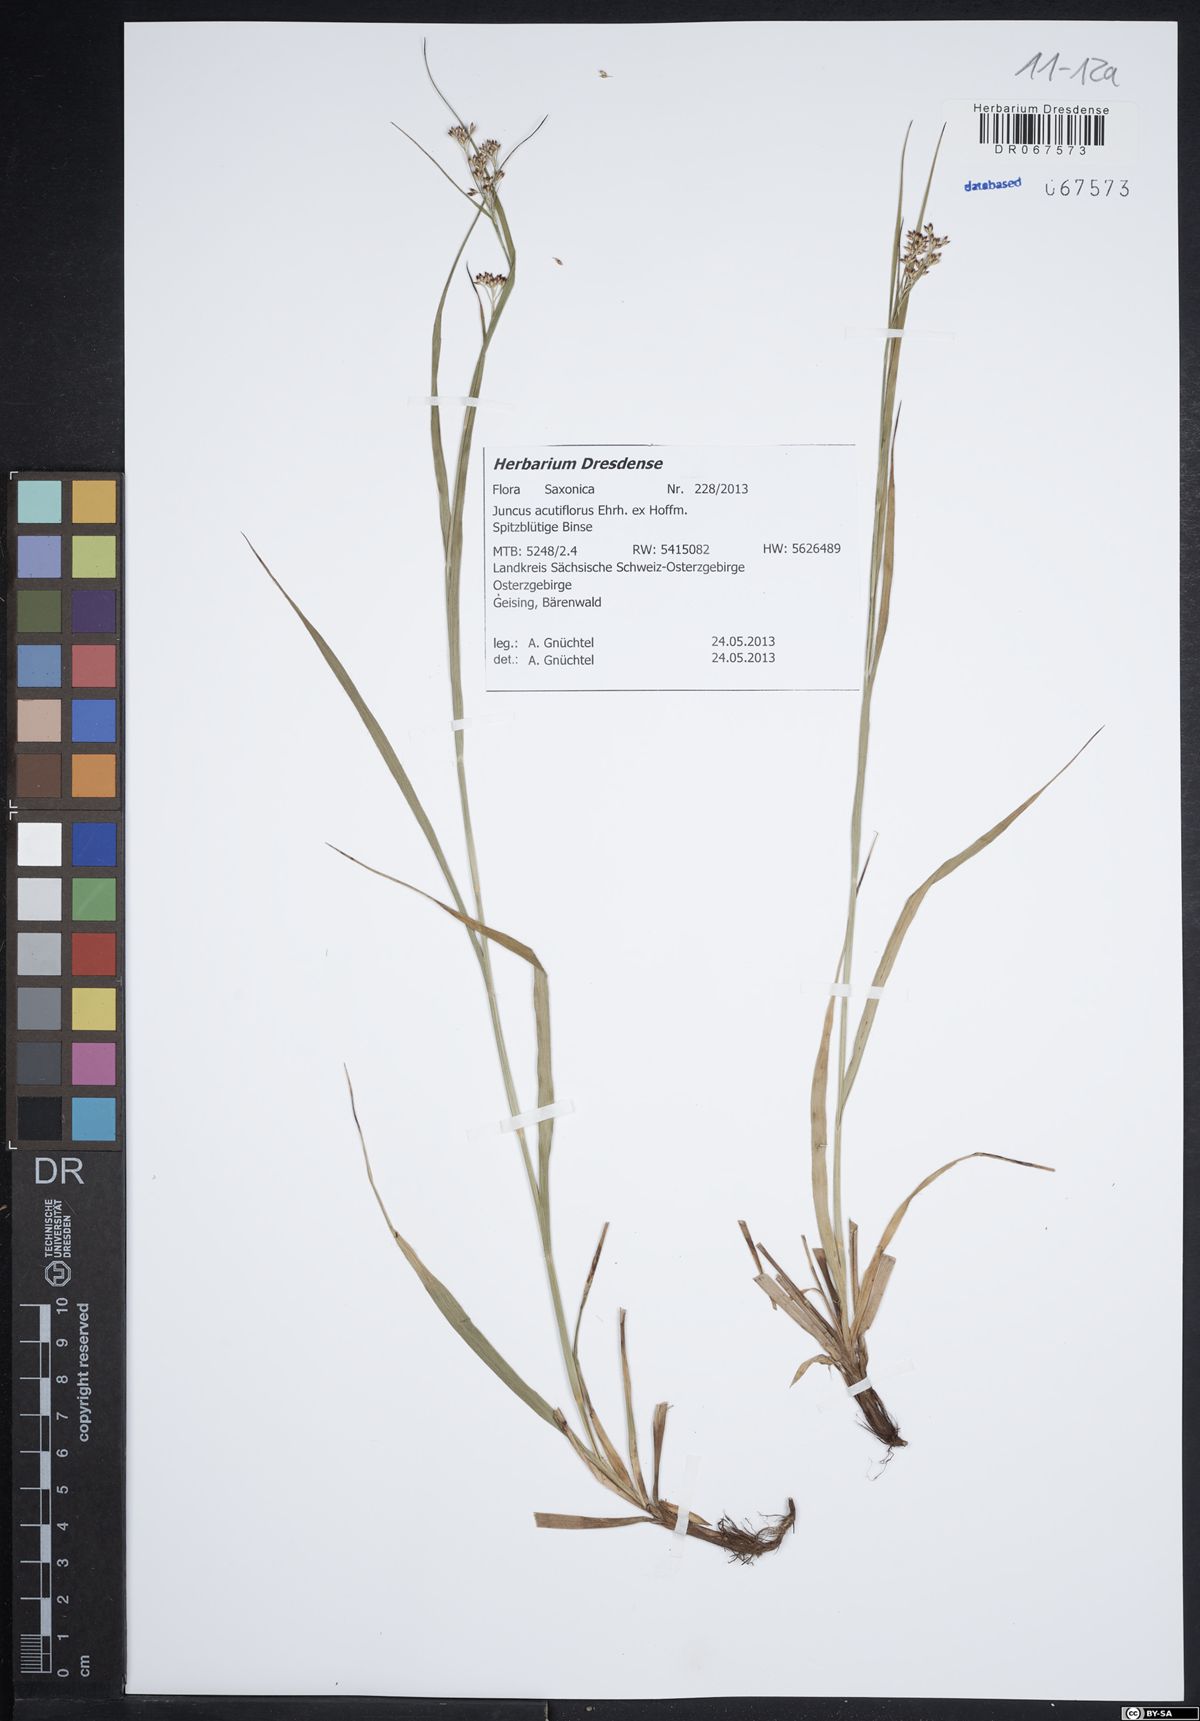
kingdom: Plantae
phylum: Tracheophyta
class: Liliopsida
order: Poales
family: Juncaceae
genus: Juncus
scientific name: Juncus acutiflorus
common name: Sharp-flowered rush
